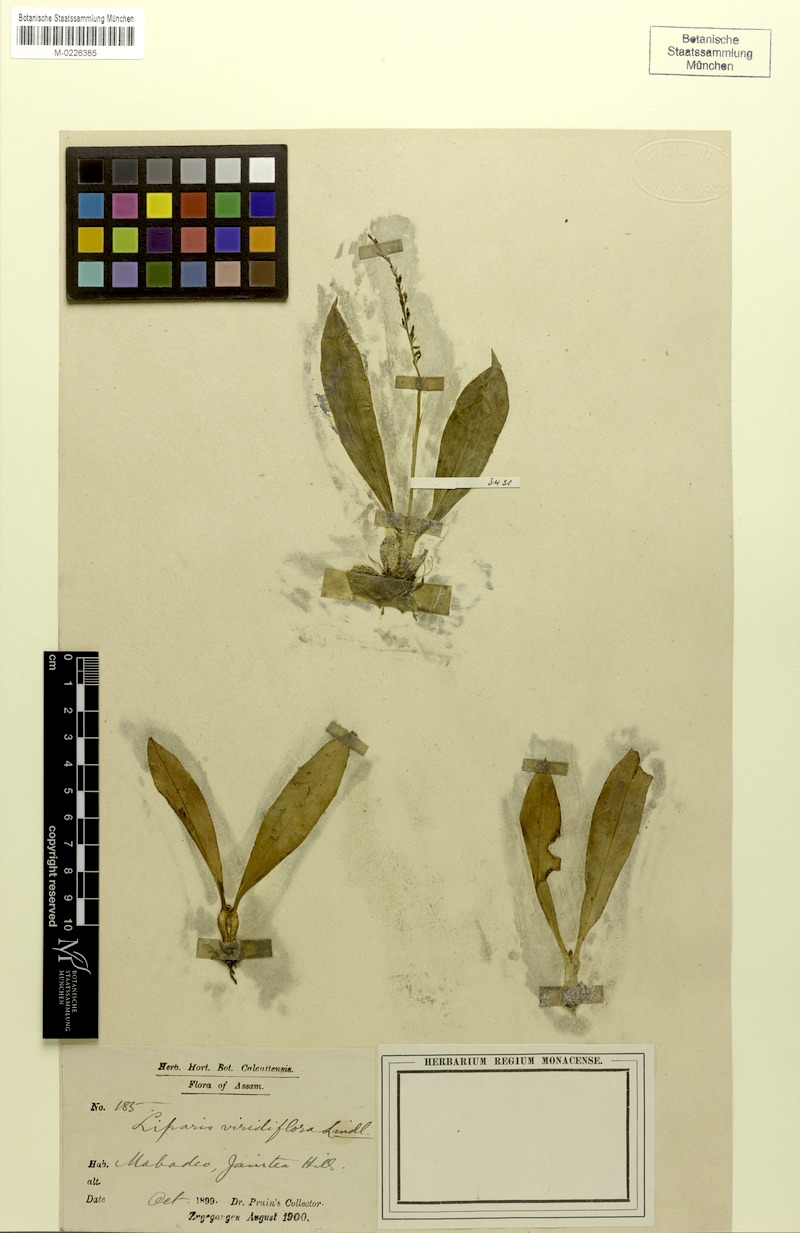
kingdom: Plantae
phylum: Tracheophyta
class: Liliopsida
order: Asparagales
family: Orchidaceae
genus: Liparis
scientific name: Liparis viridiflora
